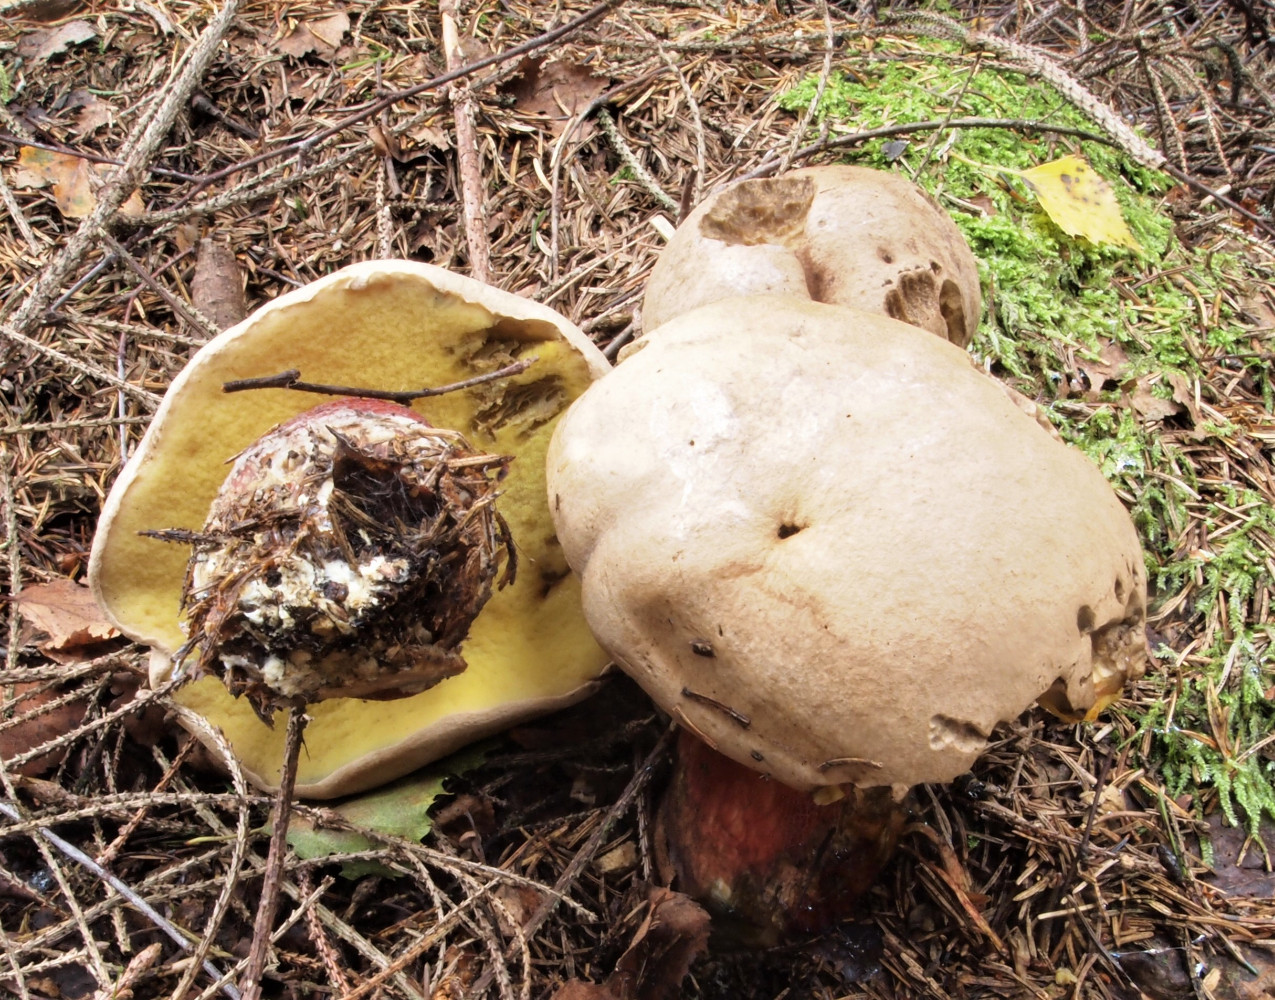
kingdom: Fungi
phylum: Basidiomycota
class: Agaricomycetes
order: Boletales
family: Boletaceae
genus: Caloboletus
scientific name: Caloboletus calopus
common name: skønfodet rørhat
